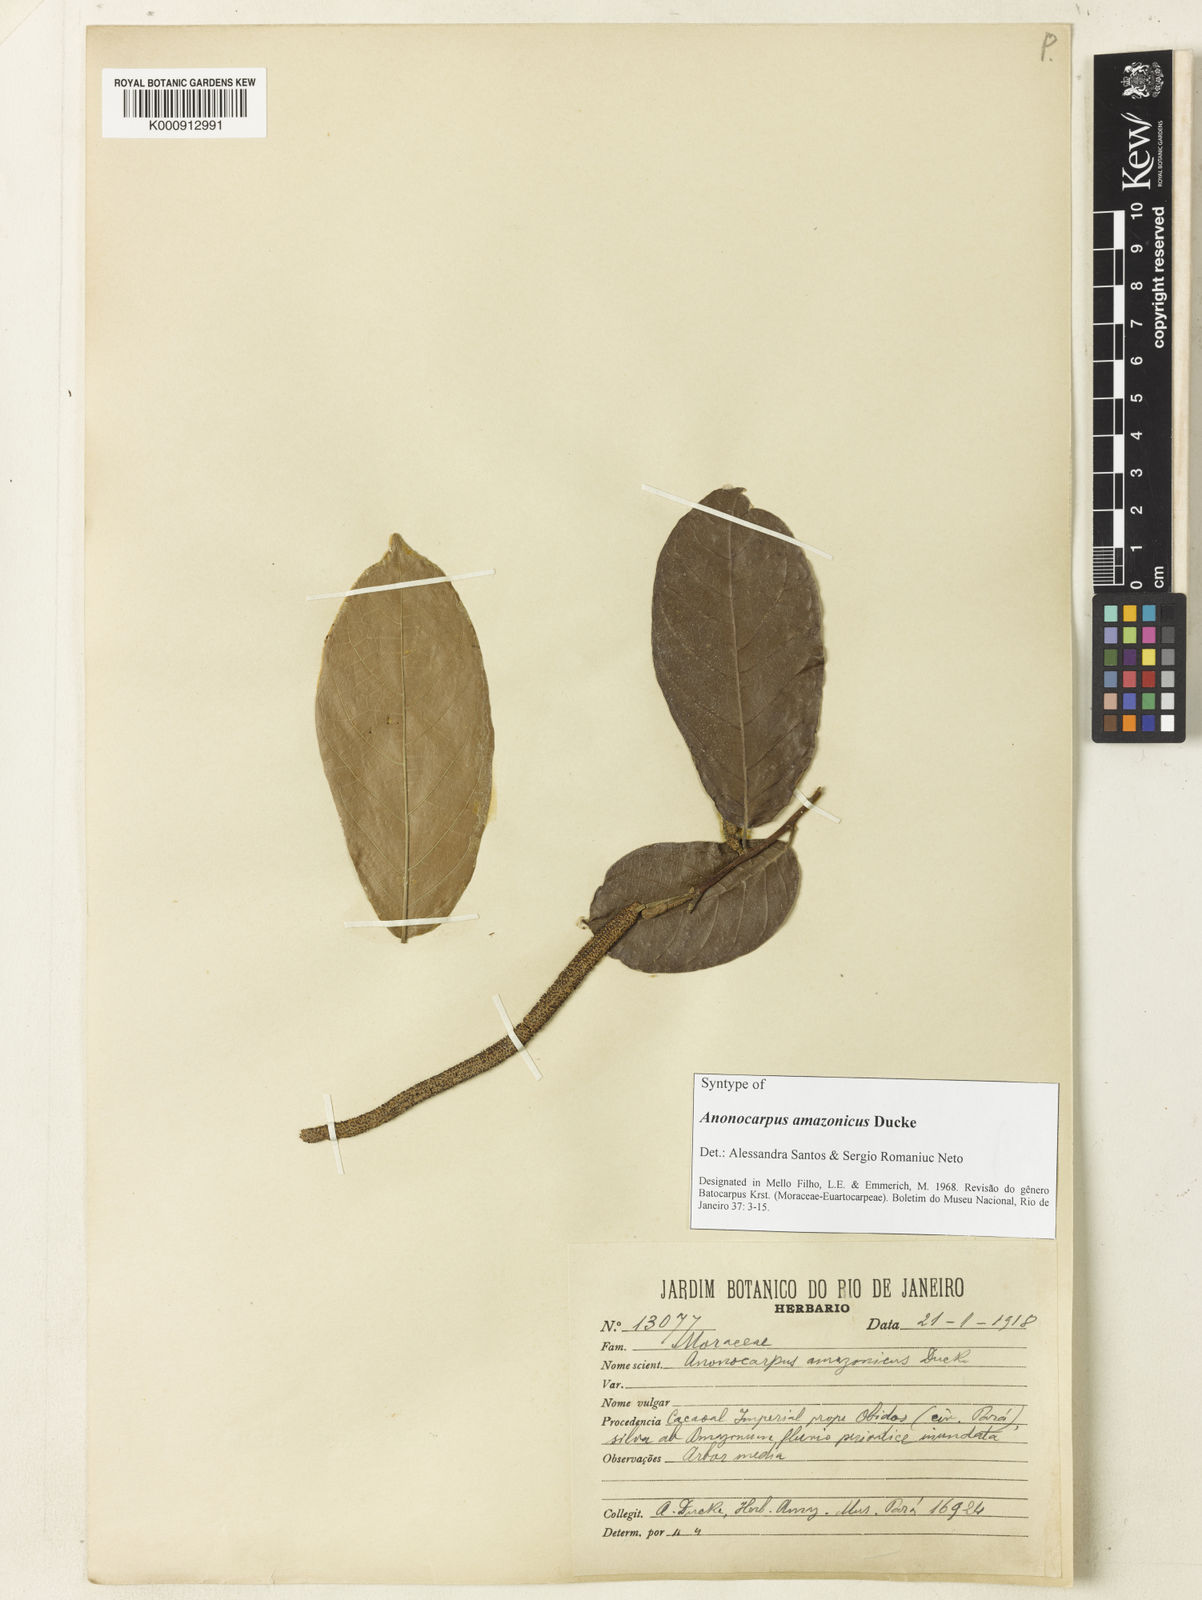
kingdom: Plantae
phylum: Tracheophyta
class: Magnoliopsida
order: Rosales
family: Moraceae
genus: Batocarpus
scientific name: Batocarpus amazonicus
